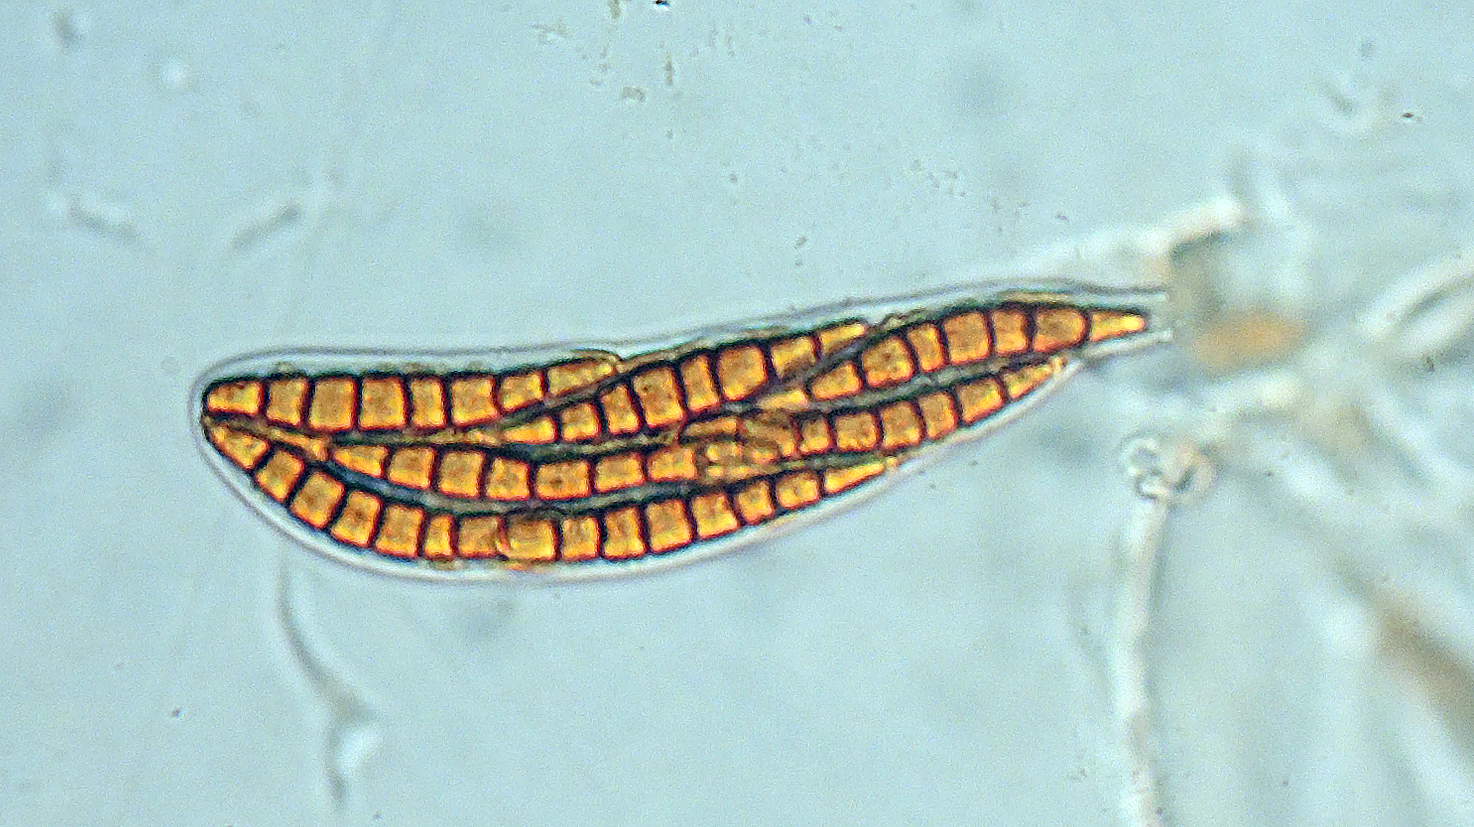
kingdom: Fungi
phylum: Ascomycota
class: Leotiomycetes
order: Helotiales
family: Helotiaceae
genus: Durella
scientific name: Durella connivens
